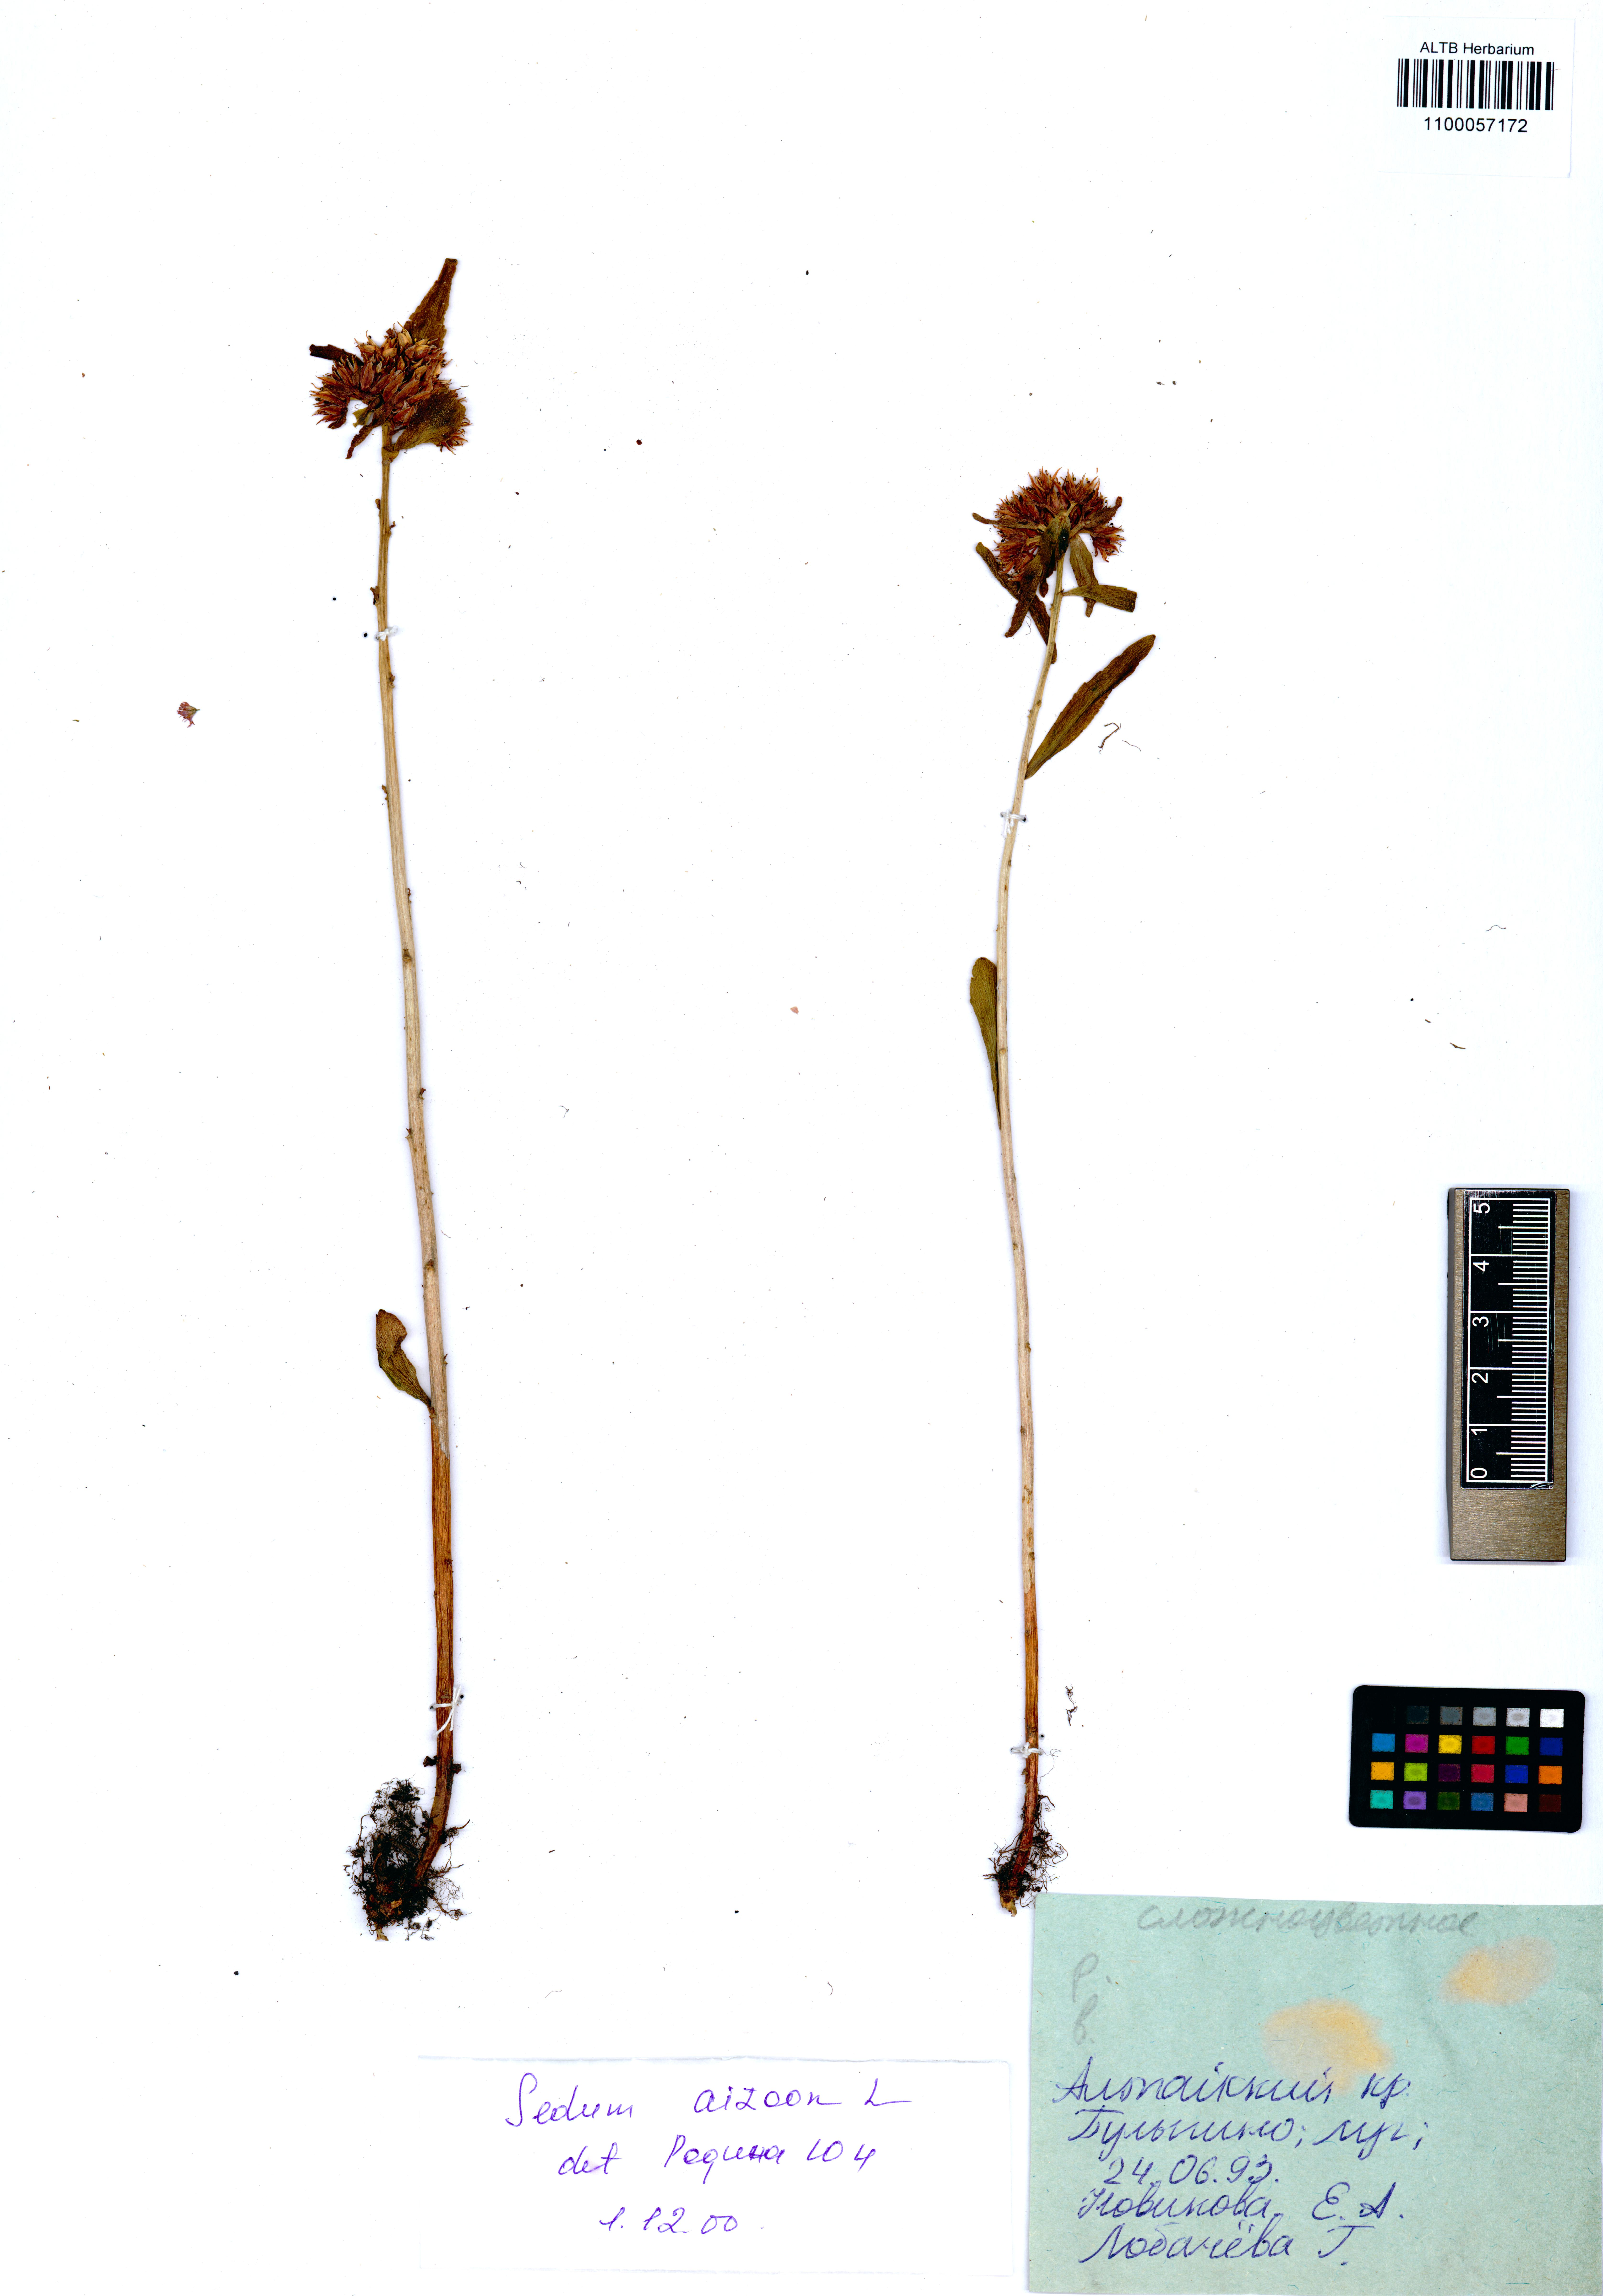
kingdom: Plantae
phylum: Tracheophyta
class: Magnoliopsida
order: Saxifragales
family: Crassulaceae
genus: Phedimus
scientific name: Phedimus aizoon
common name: Orpin aizoon
